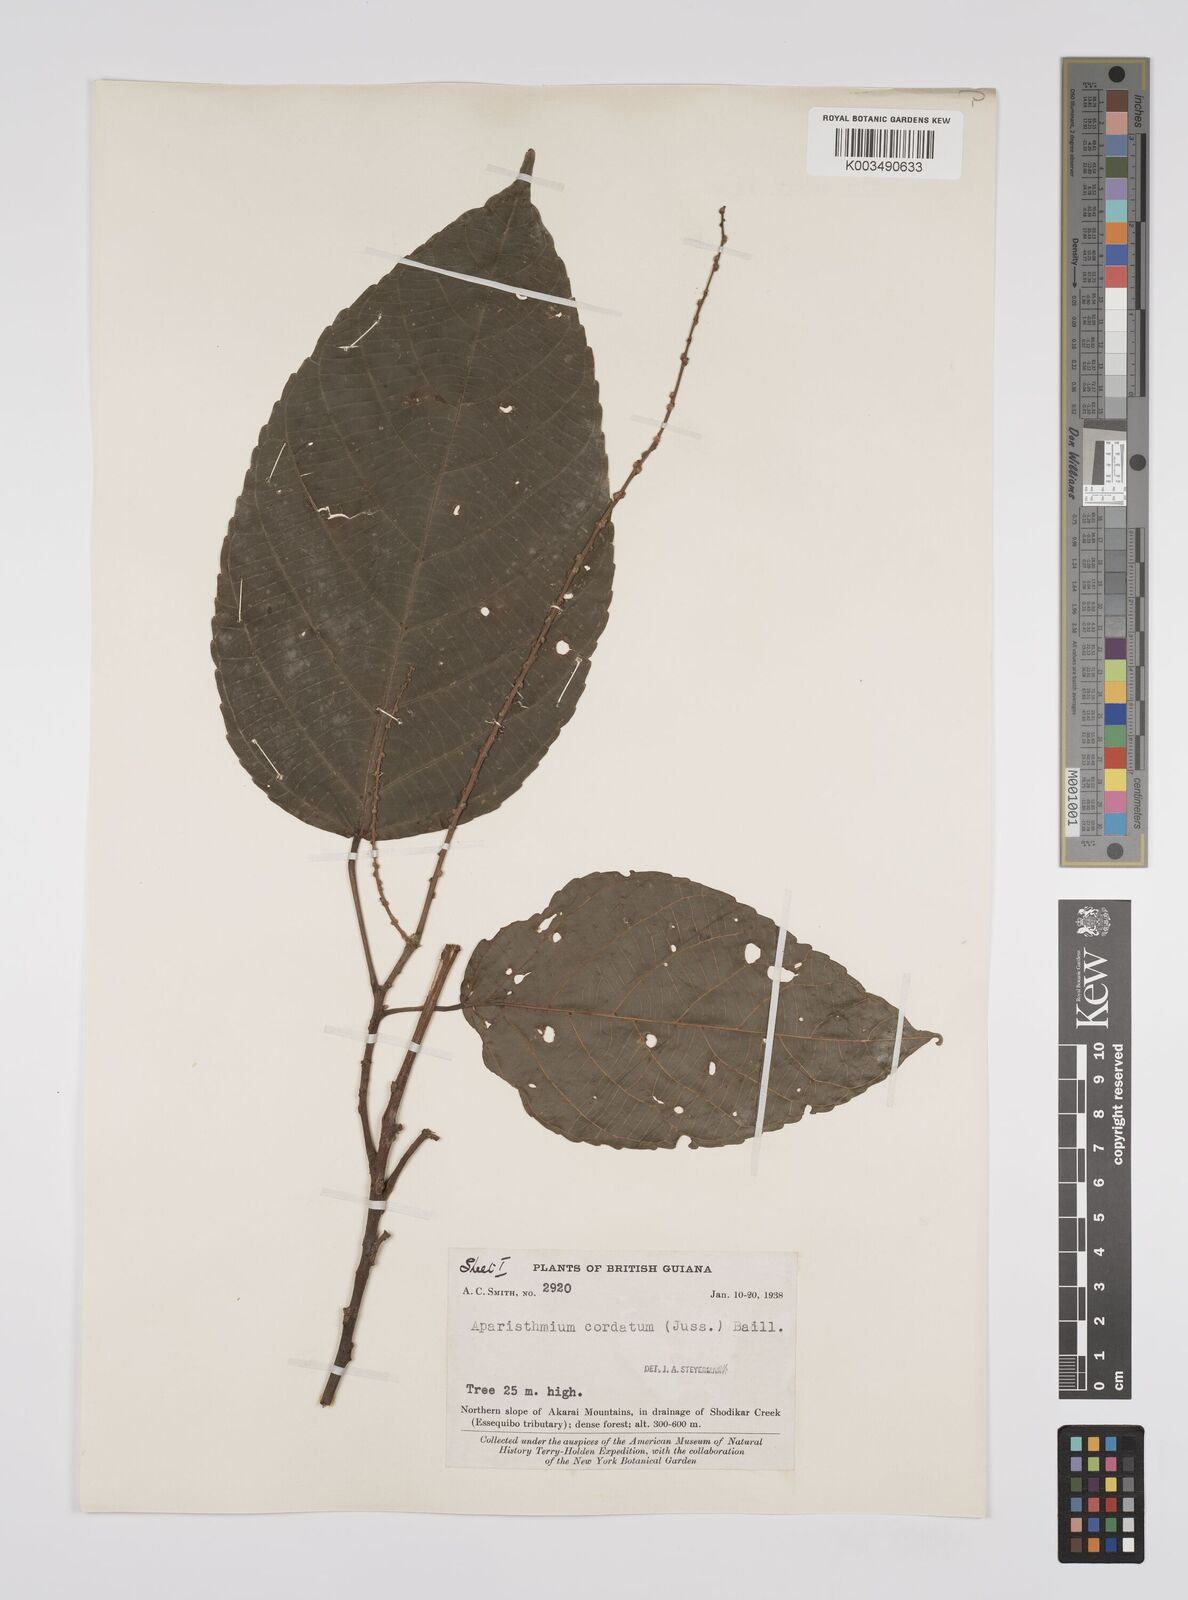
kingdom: Plantae
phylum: Tracheophyta
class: Magnoliopsida
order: Malpighiales
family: Euphorbiaceae
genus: Aparisthmium
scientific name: Aparisthmium cordatum
